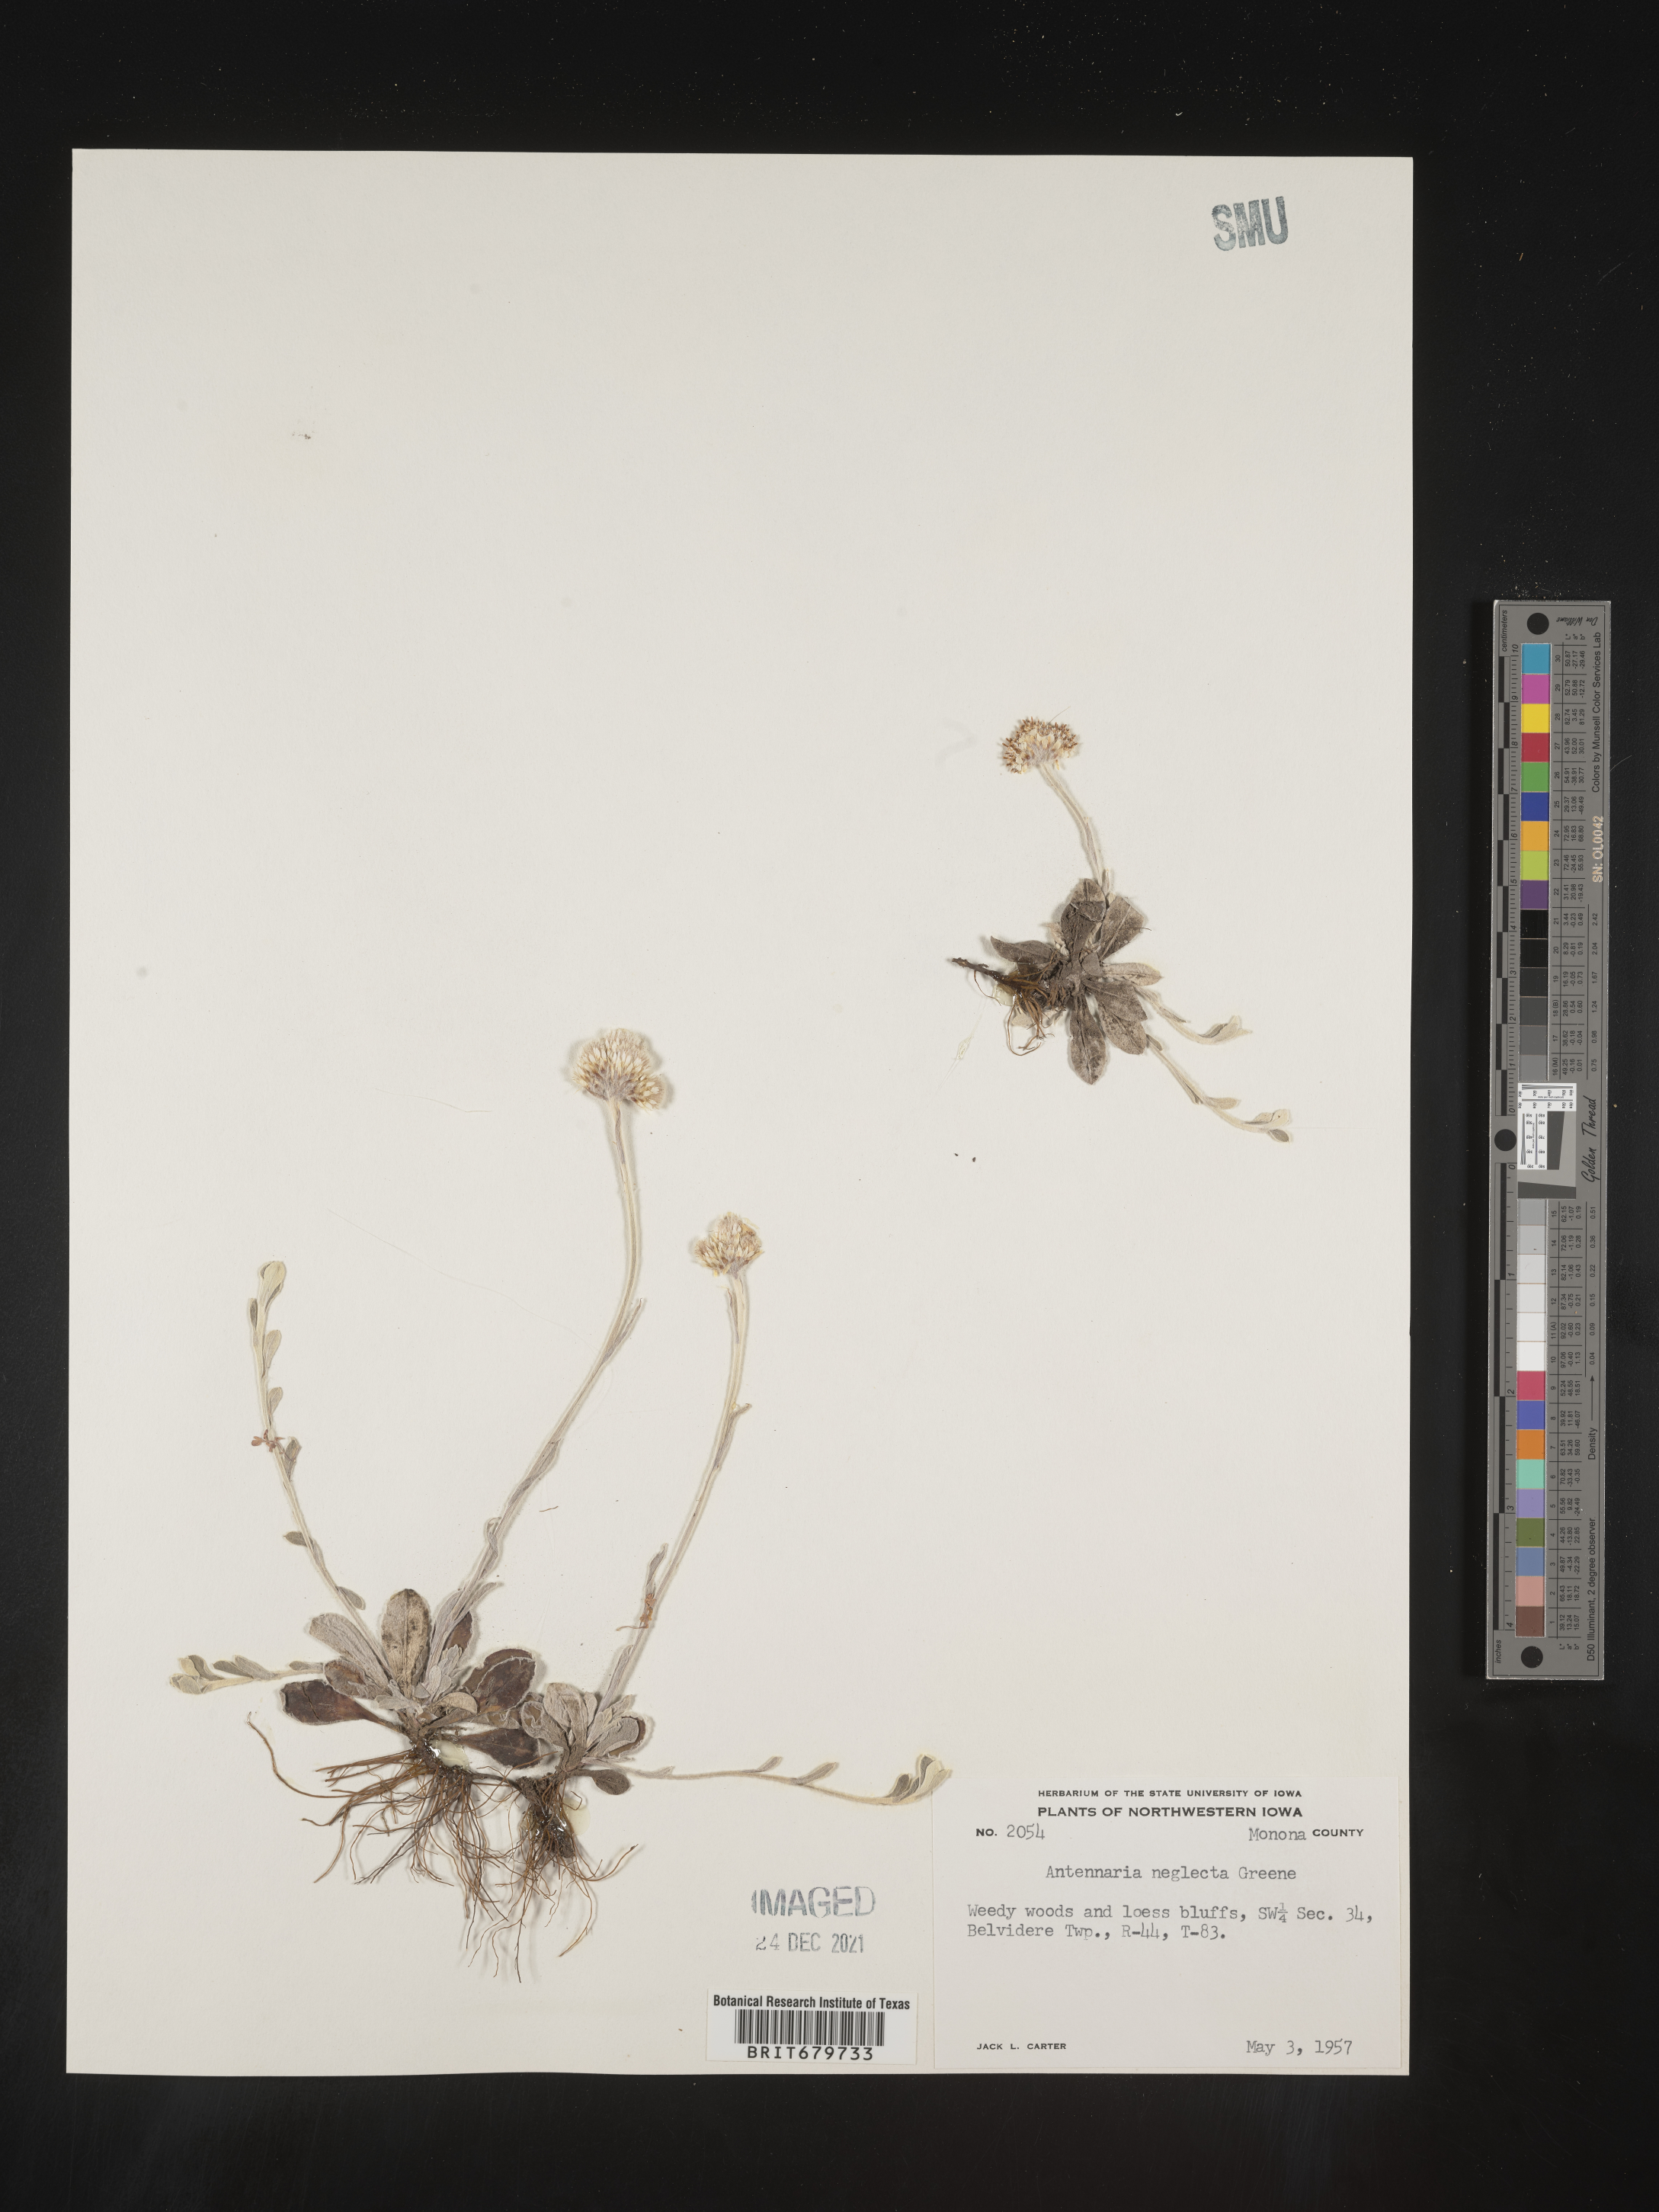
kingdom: Plantae
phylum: Tracheophyta
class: Magnoliopsida
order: Asterales
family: Asteraceae
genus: Antennaria
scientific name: Antennaria neglecta
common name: Field pussytoes
